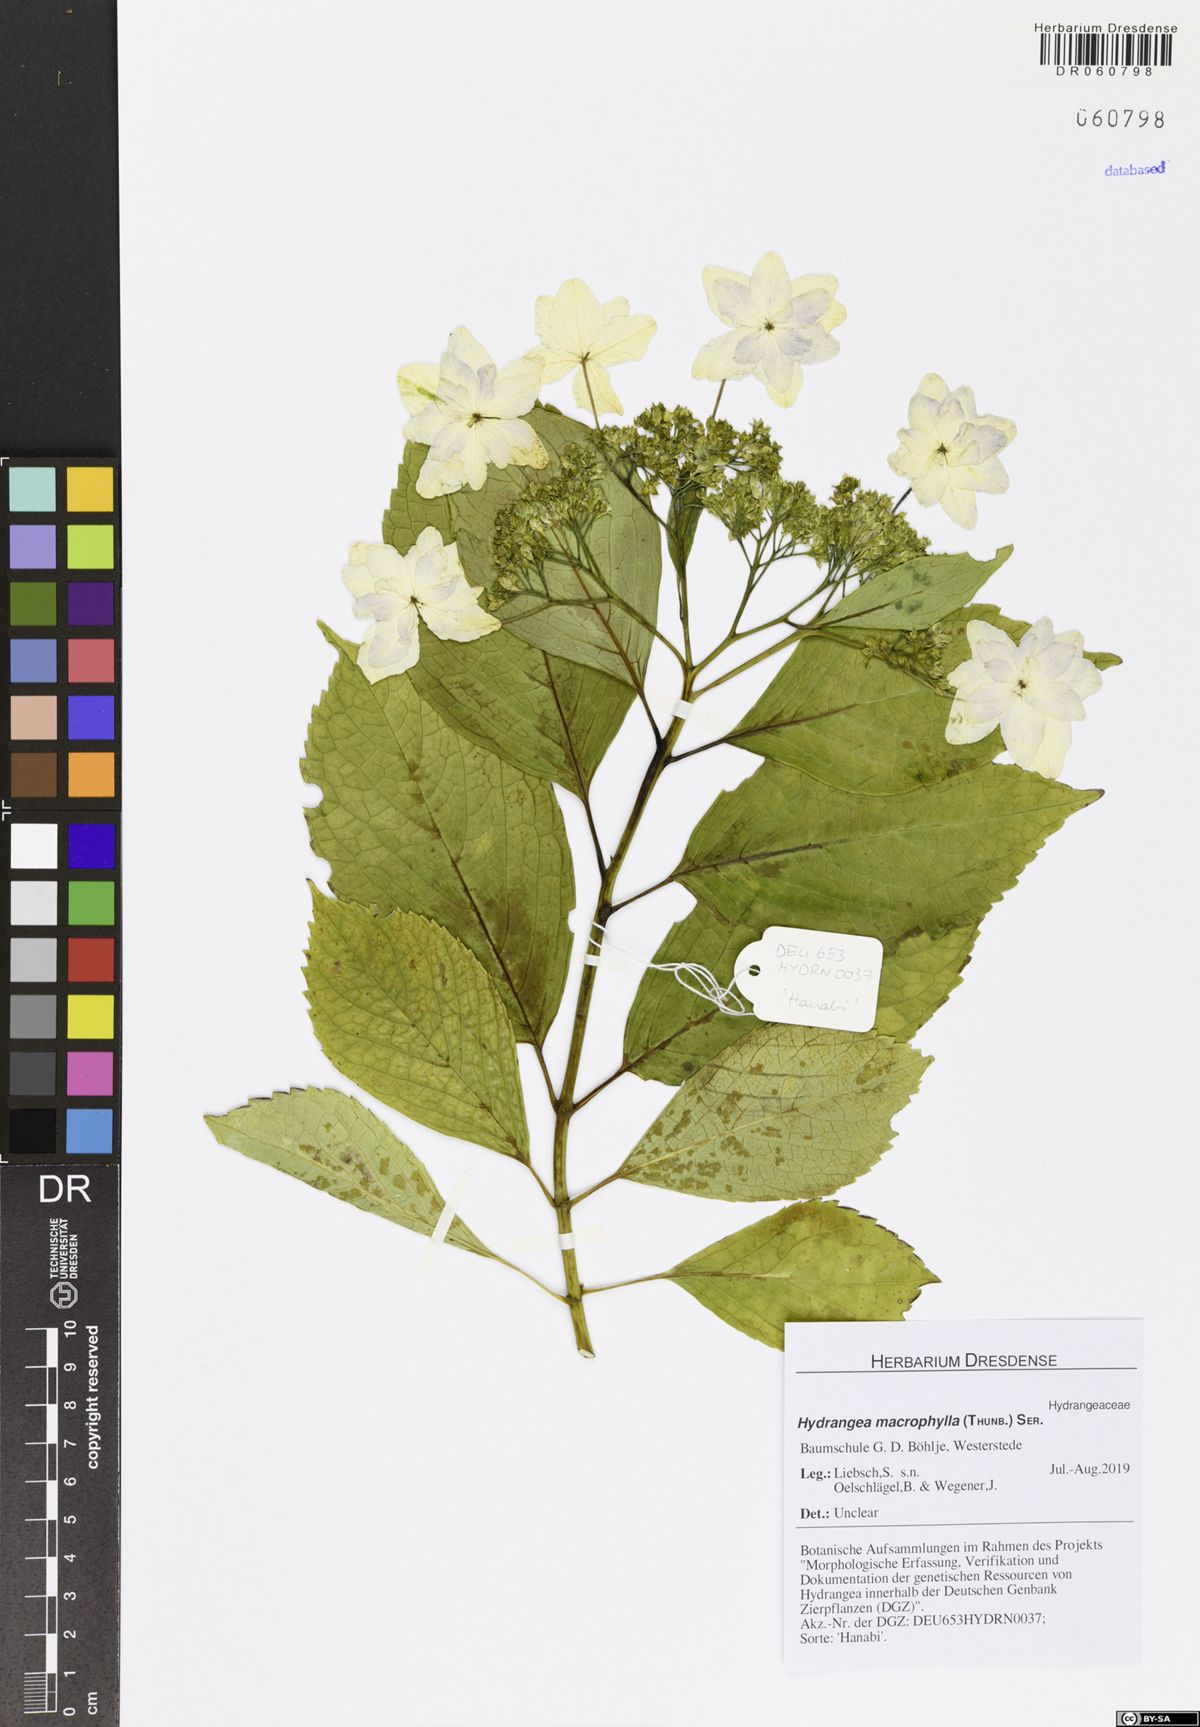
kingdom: Plantae
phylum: Tracheophyta
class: Magnoliopsida
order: Cornales
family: Hydrangeaceae
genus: Hydrangea
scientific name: Hydrangea macrophylla
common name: Hydrangea
